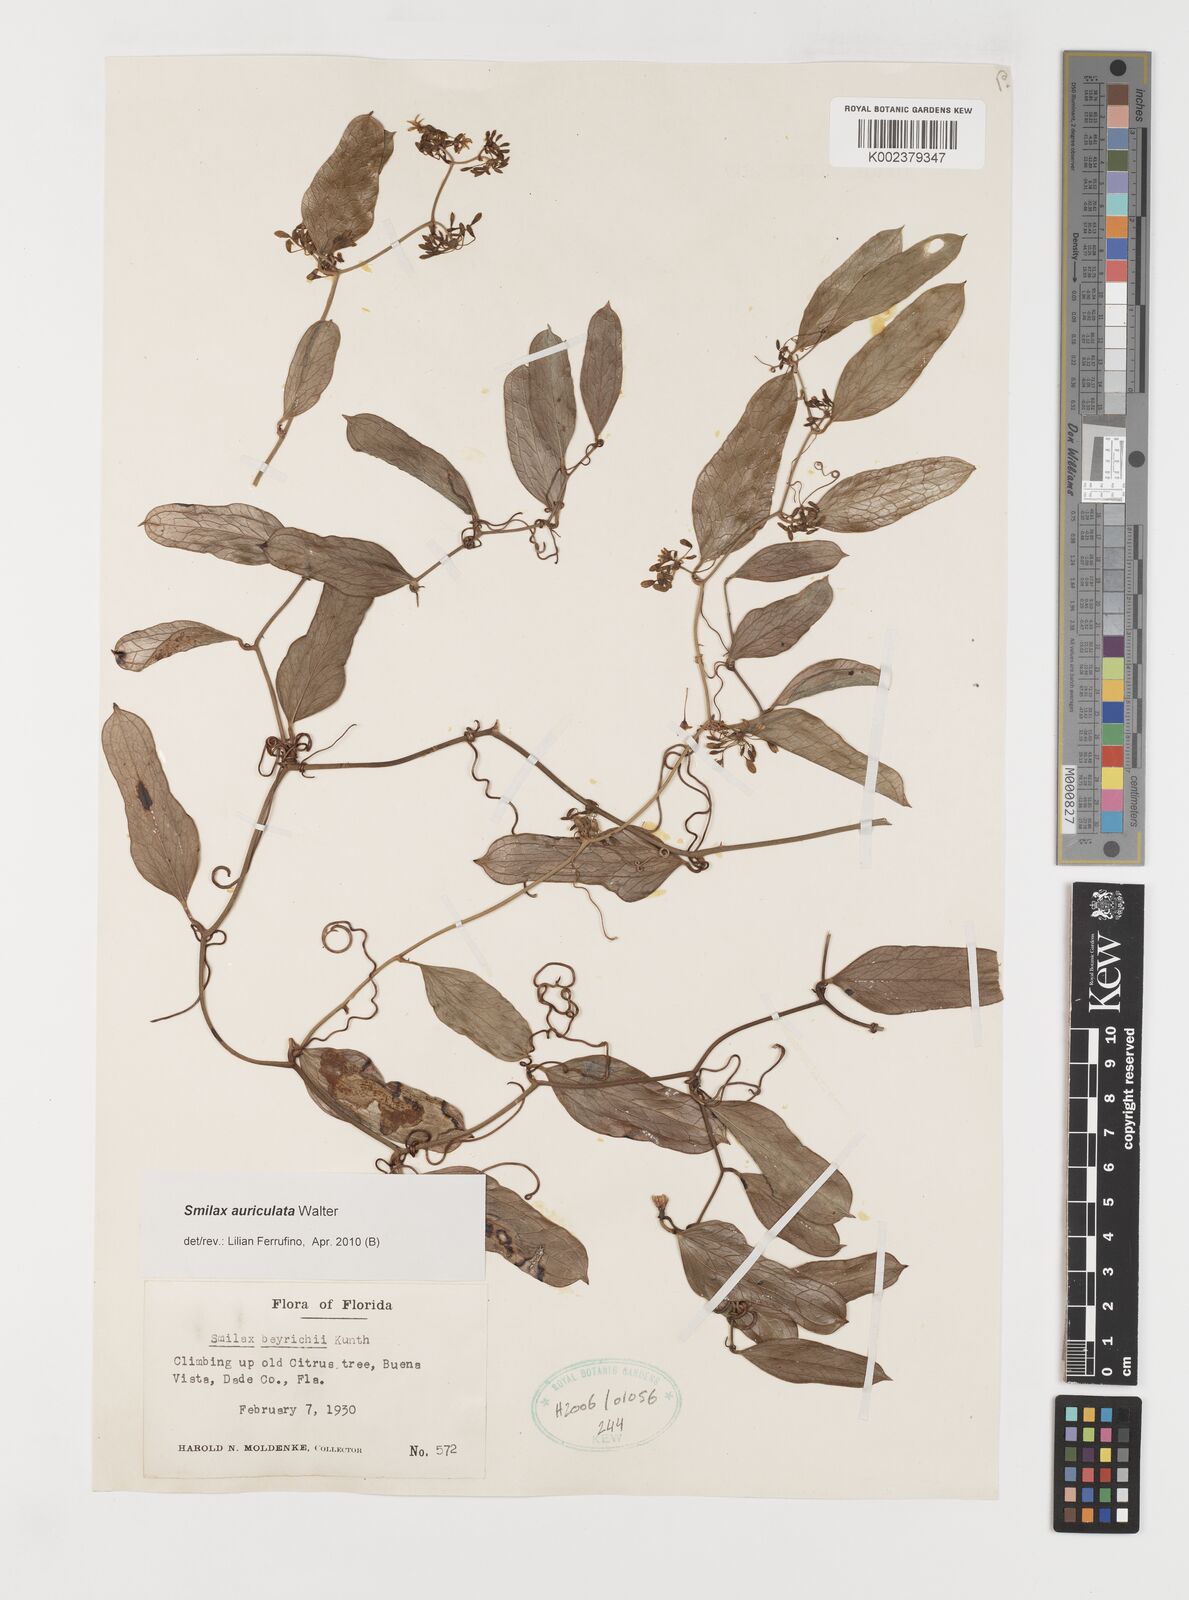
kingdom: Plantae
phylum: Tracheophyta
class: Liliopsida
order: Liliales
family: Smilacaceae
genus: Smilax
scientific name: Smilax auriculata
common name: Wild bamboo
